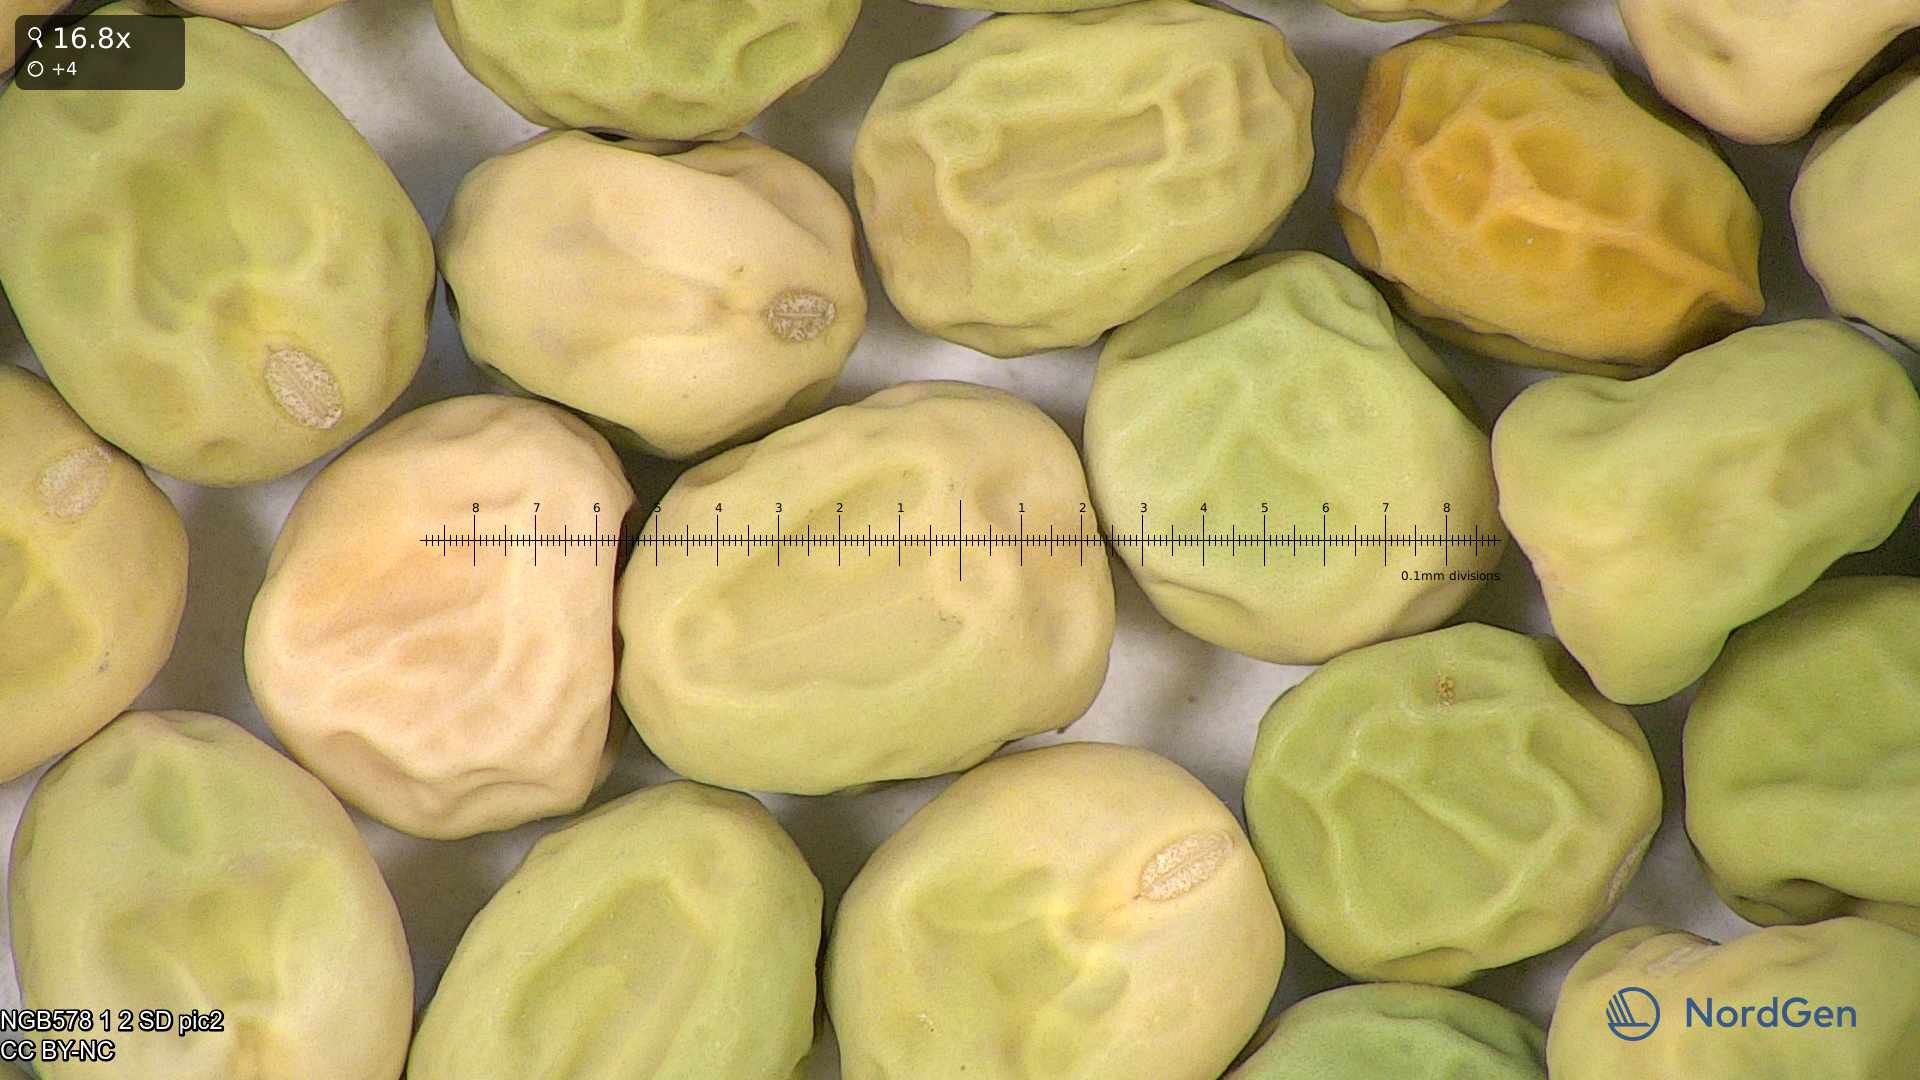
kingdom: Plantae
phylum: Tracheophyta
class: Magnoliopsida
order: Fabales
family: Fabaceae
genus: Lathyrus
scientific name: Lathyrus oleraceus
